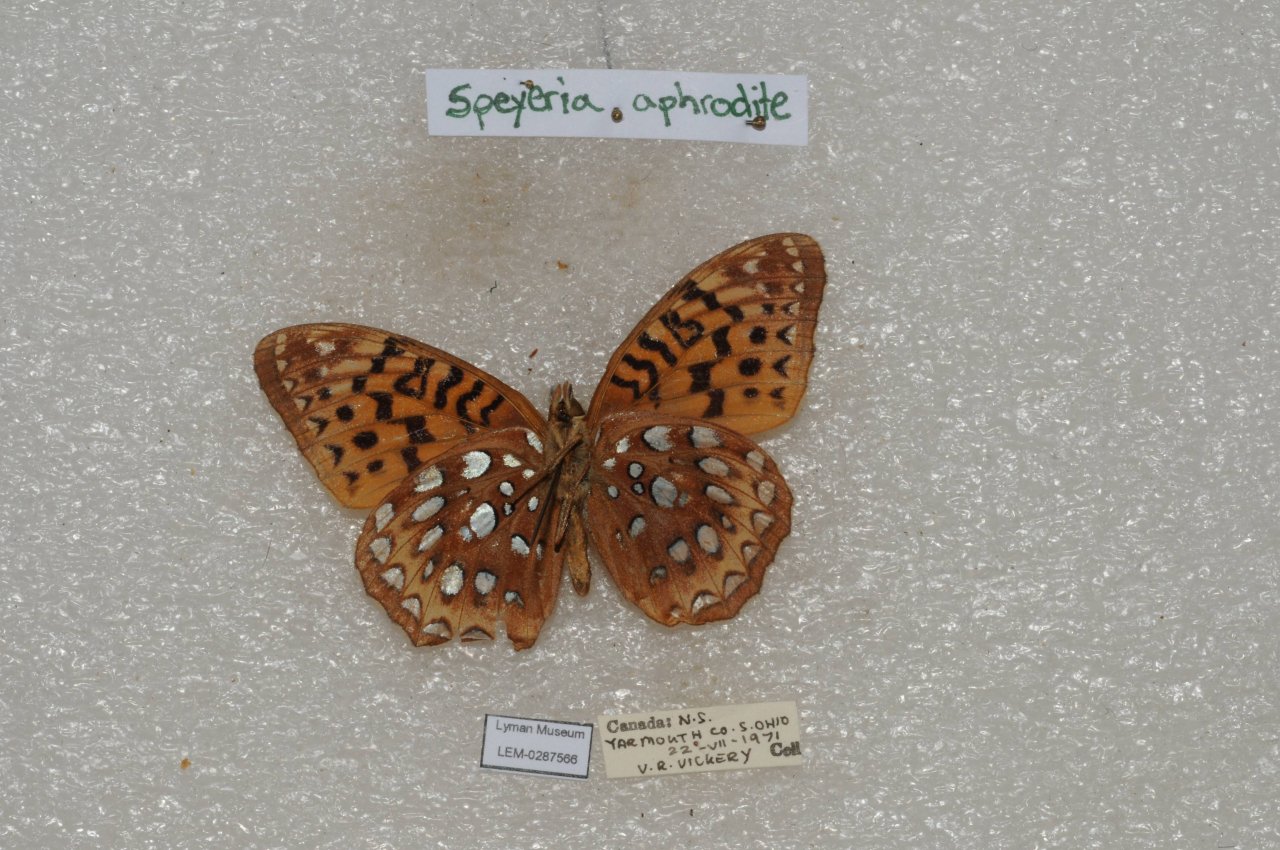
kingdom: Animalia
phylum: Arthropoda
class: Insecta
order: Lepidoptera
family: Nymphalidae
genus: Speyeria
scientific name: Speyeria aphrodite
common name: Aphrodite Fritillary
